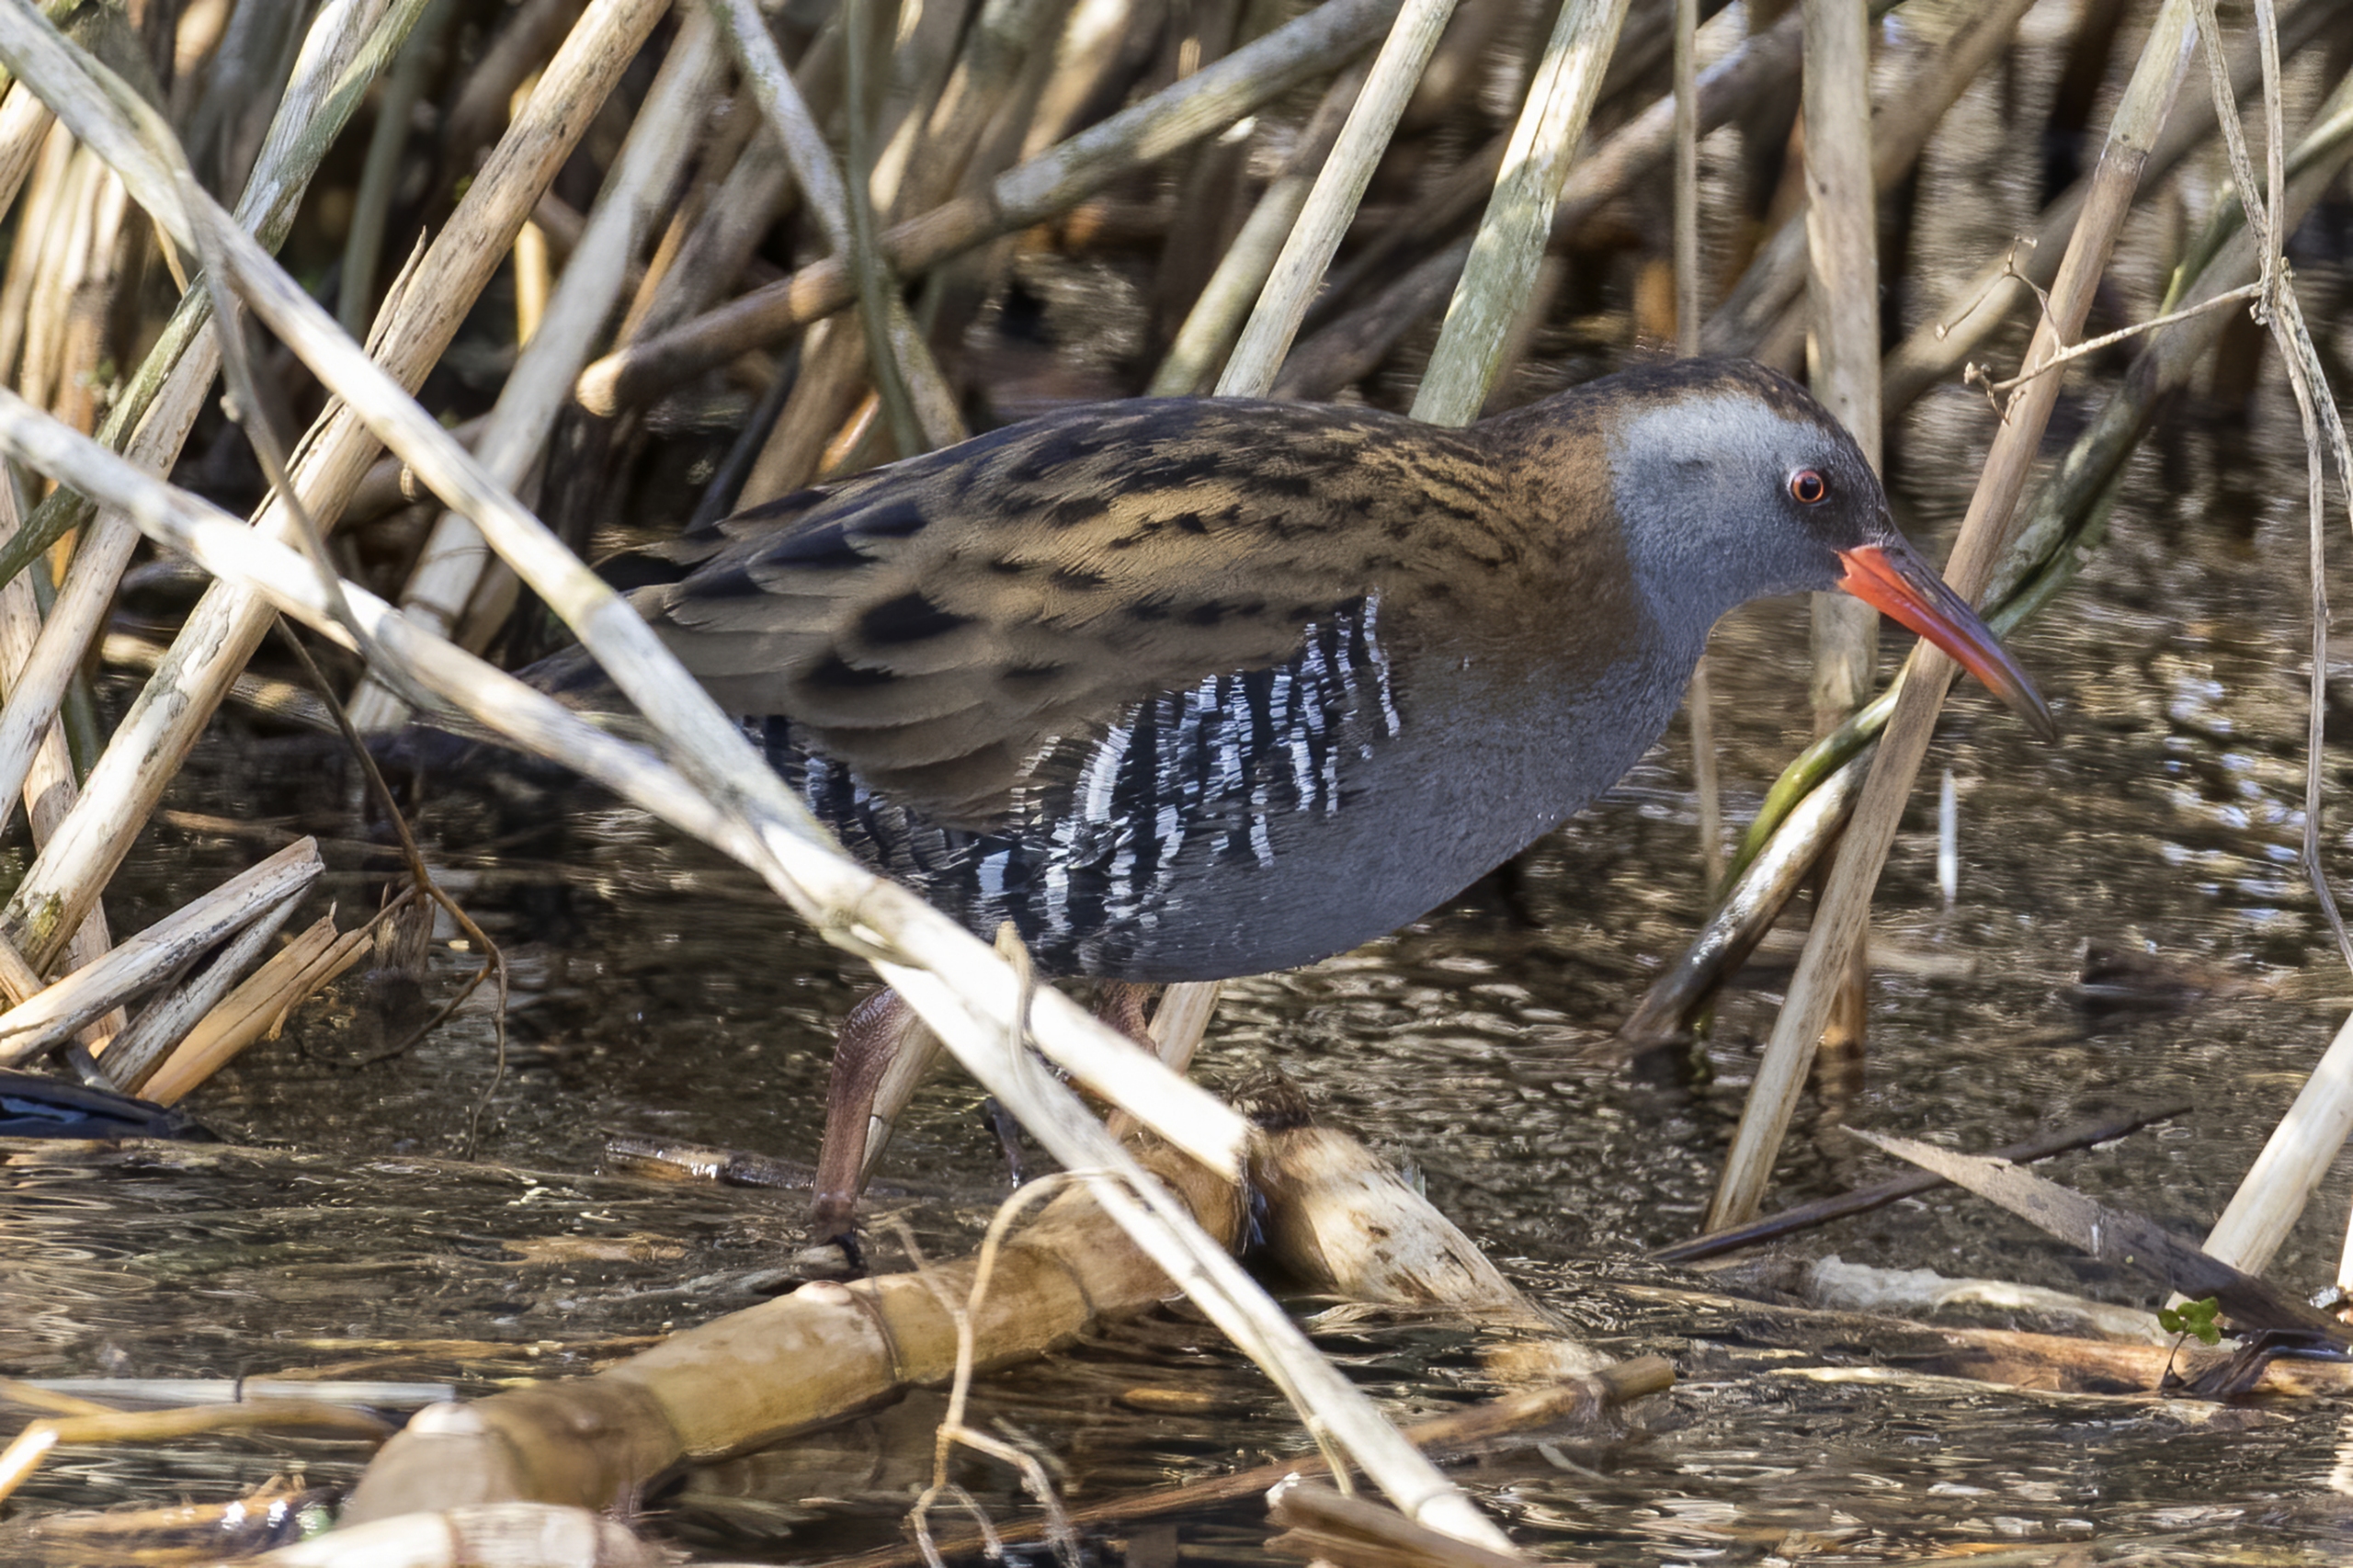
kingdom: Animalia
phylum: Chordata
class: Aves
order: Gruiformes
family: Rallidae
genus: Rallus
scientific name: Rallus aquaticus
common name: Vandrikse
